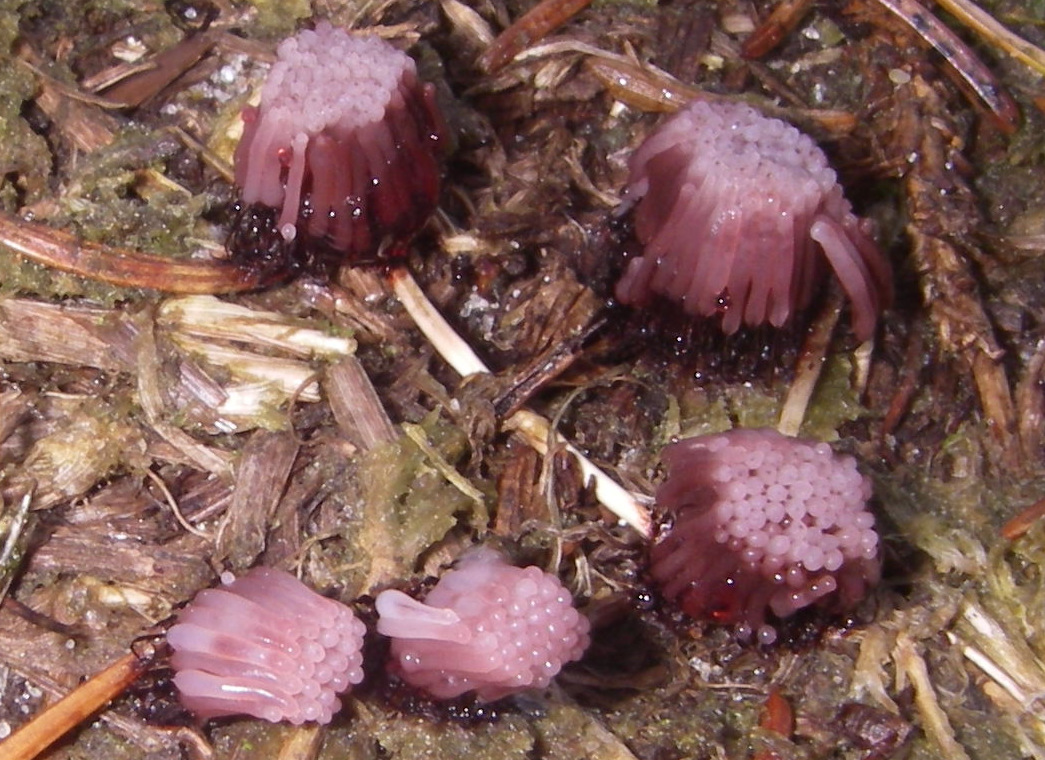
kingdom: Protozoa
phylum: Mycetozoa
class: Myxomycetes
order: Stemonitidales
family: Stemonitidaceae
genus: Stemonitis
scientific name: Stemonitis
